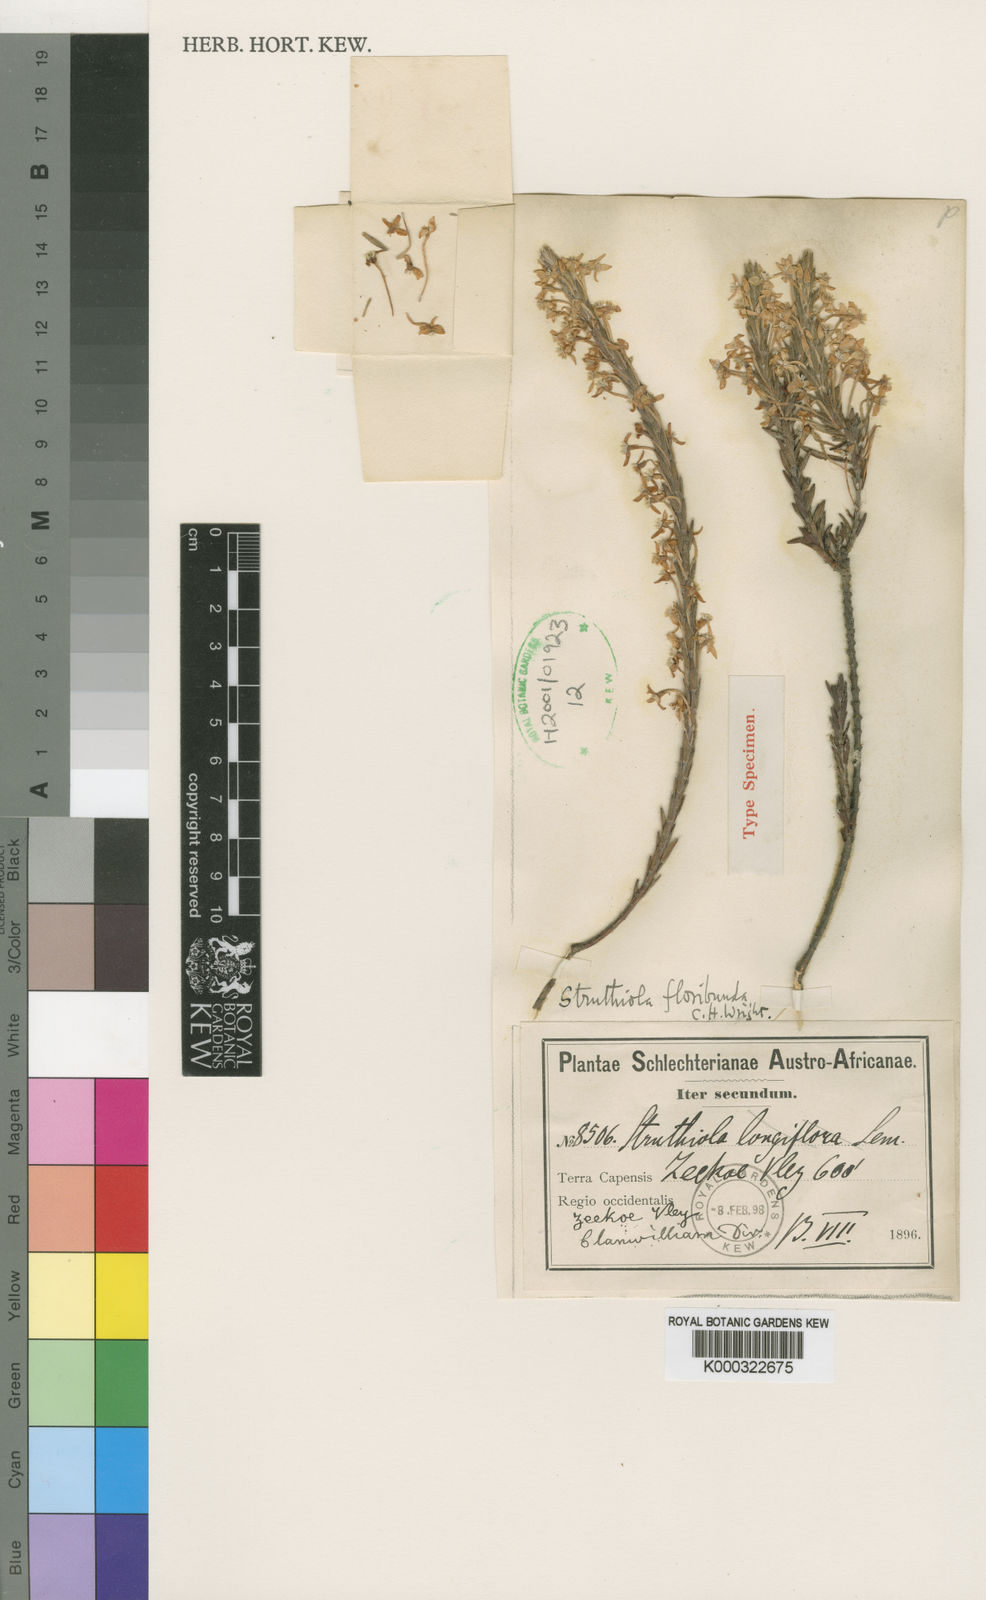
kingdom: Plantae
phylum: Tracheophyta
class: Magnoliopsida
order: Malvales
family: Thymelaeaceae
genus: Struthiola
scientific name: Struthiola ciliata
